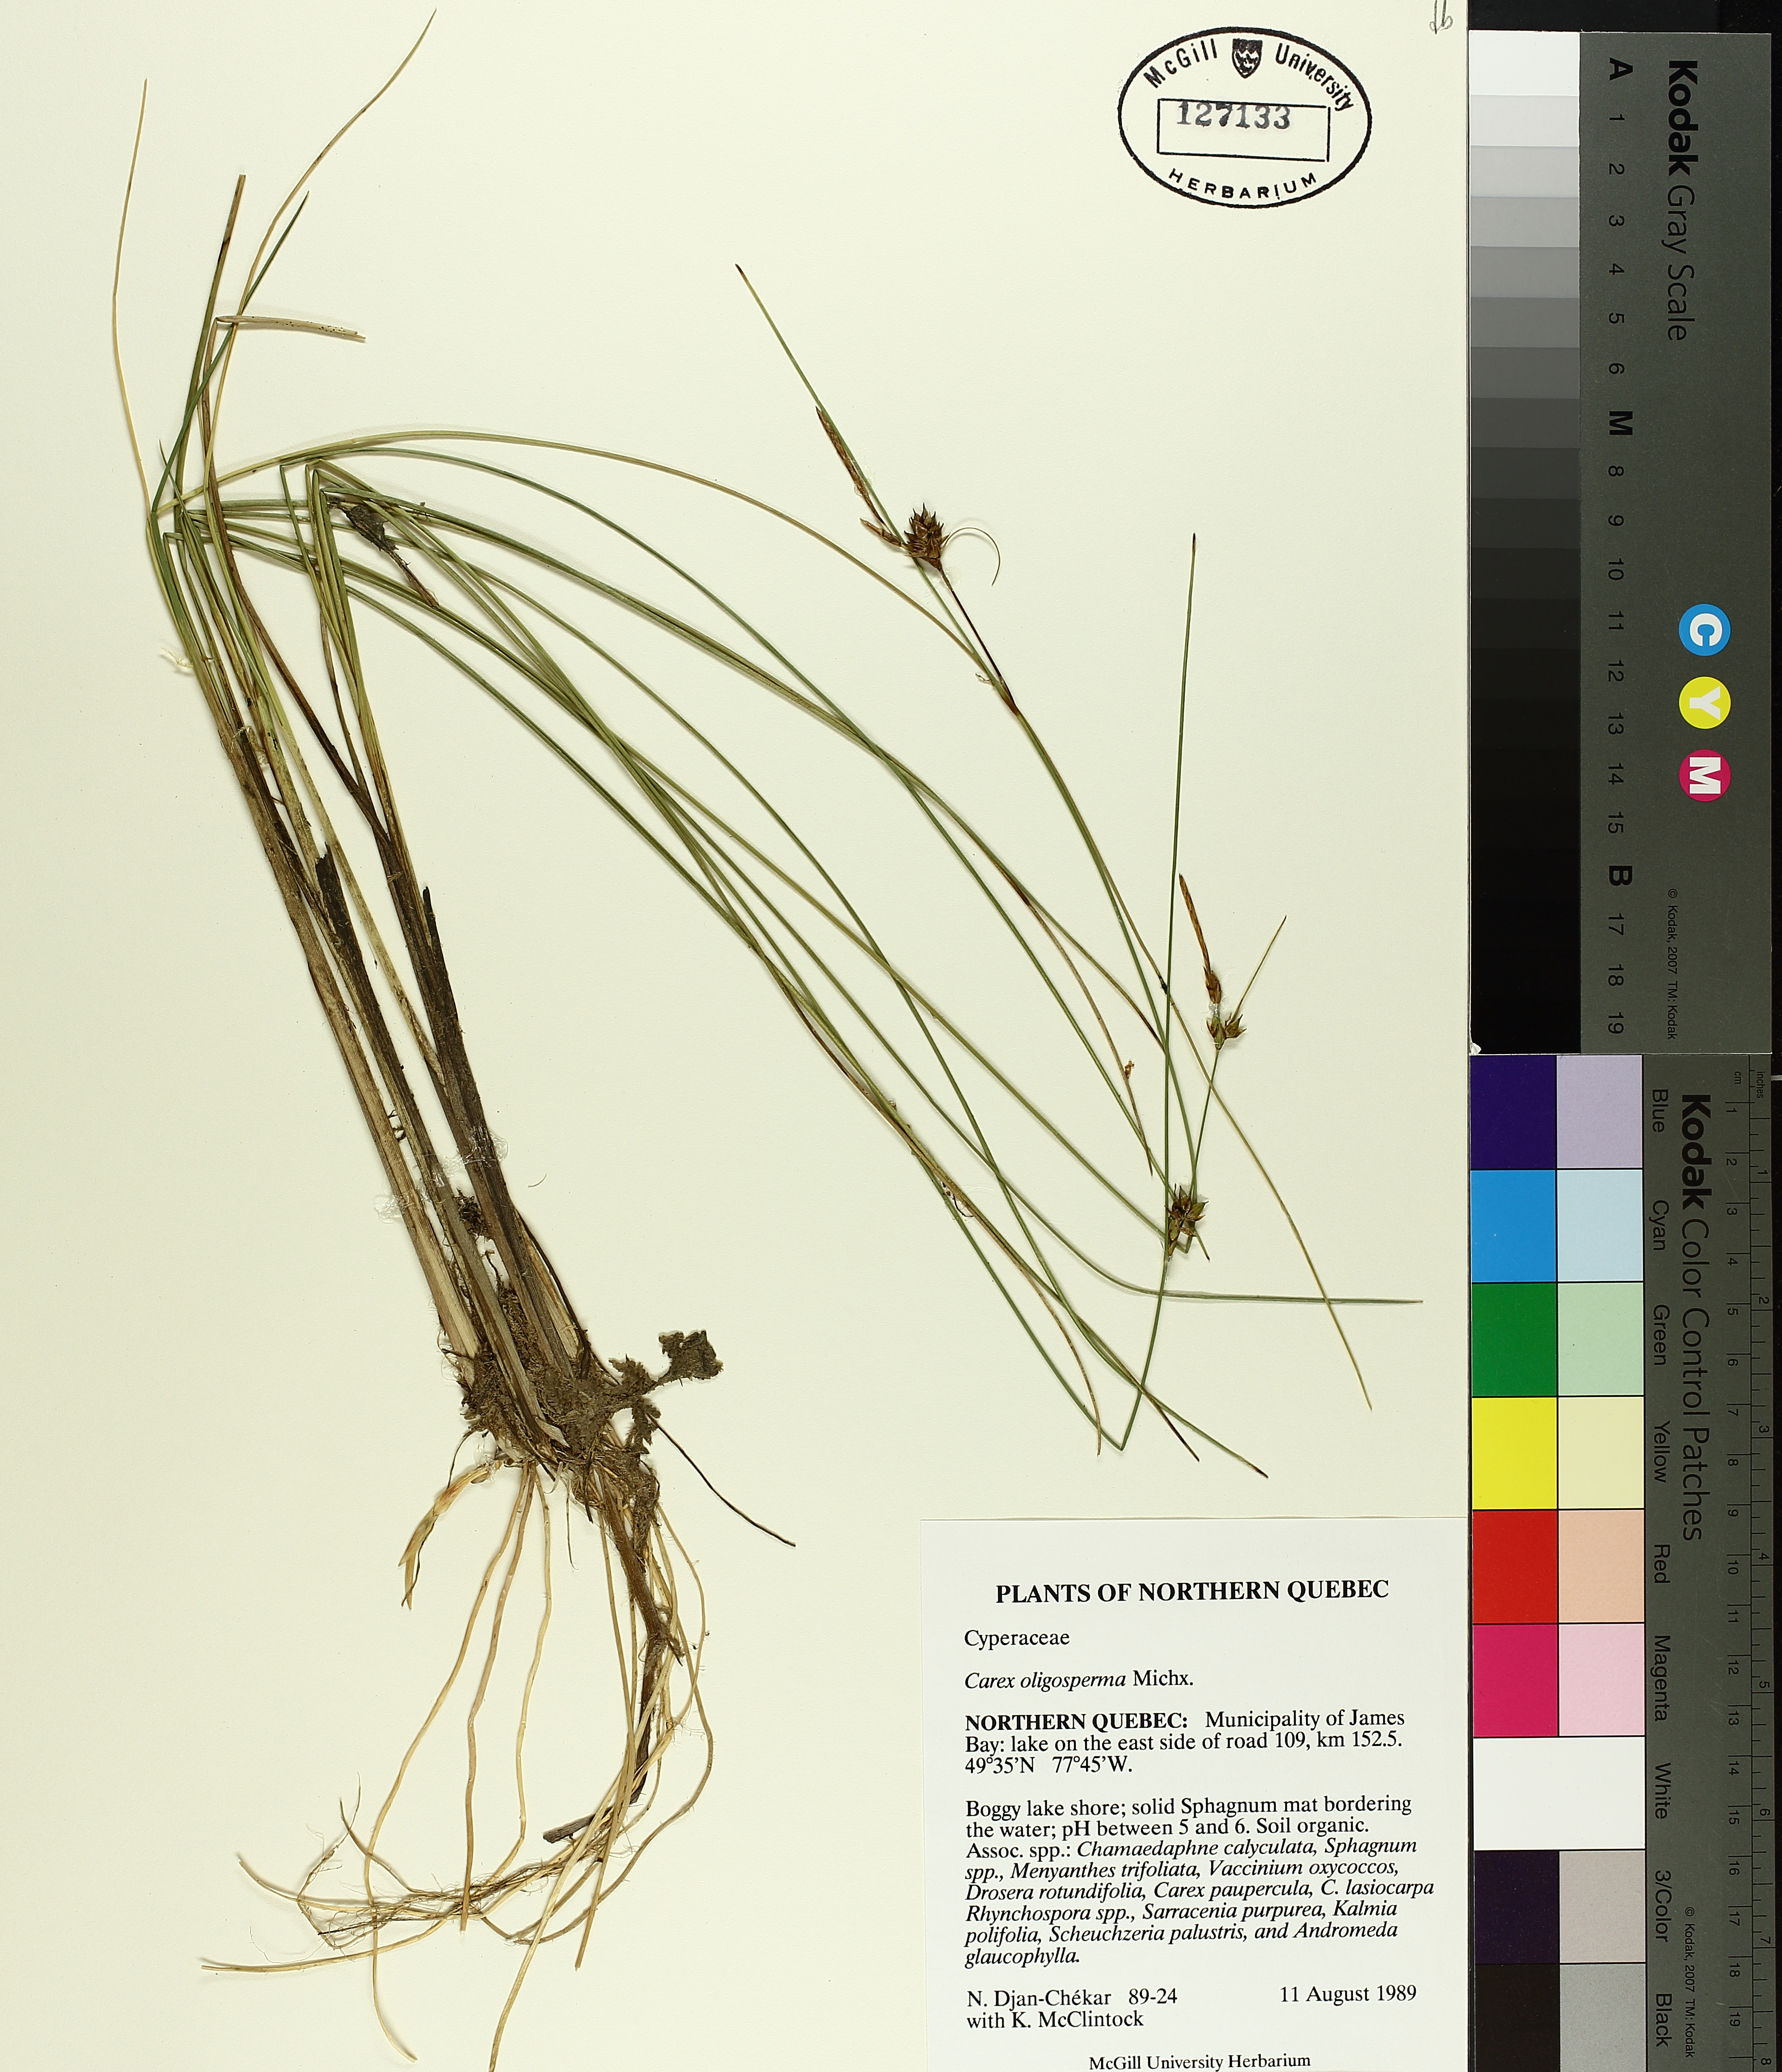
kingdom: Plantae
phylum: Tracheophyta
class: Liliopsida
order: Poales
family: Cyperaceae
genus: Carex
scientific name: Carex oligosperma
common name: Few-seed sedge
